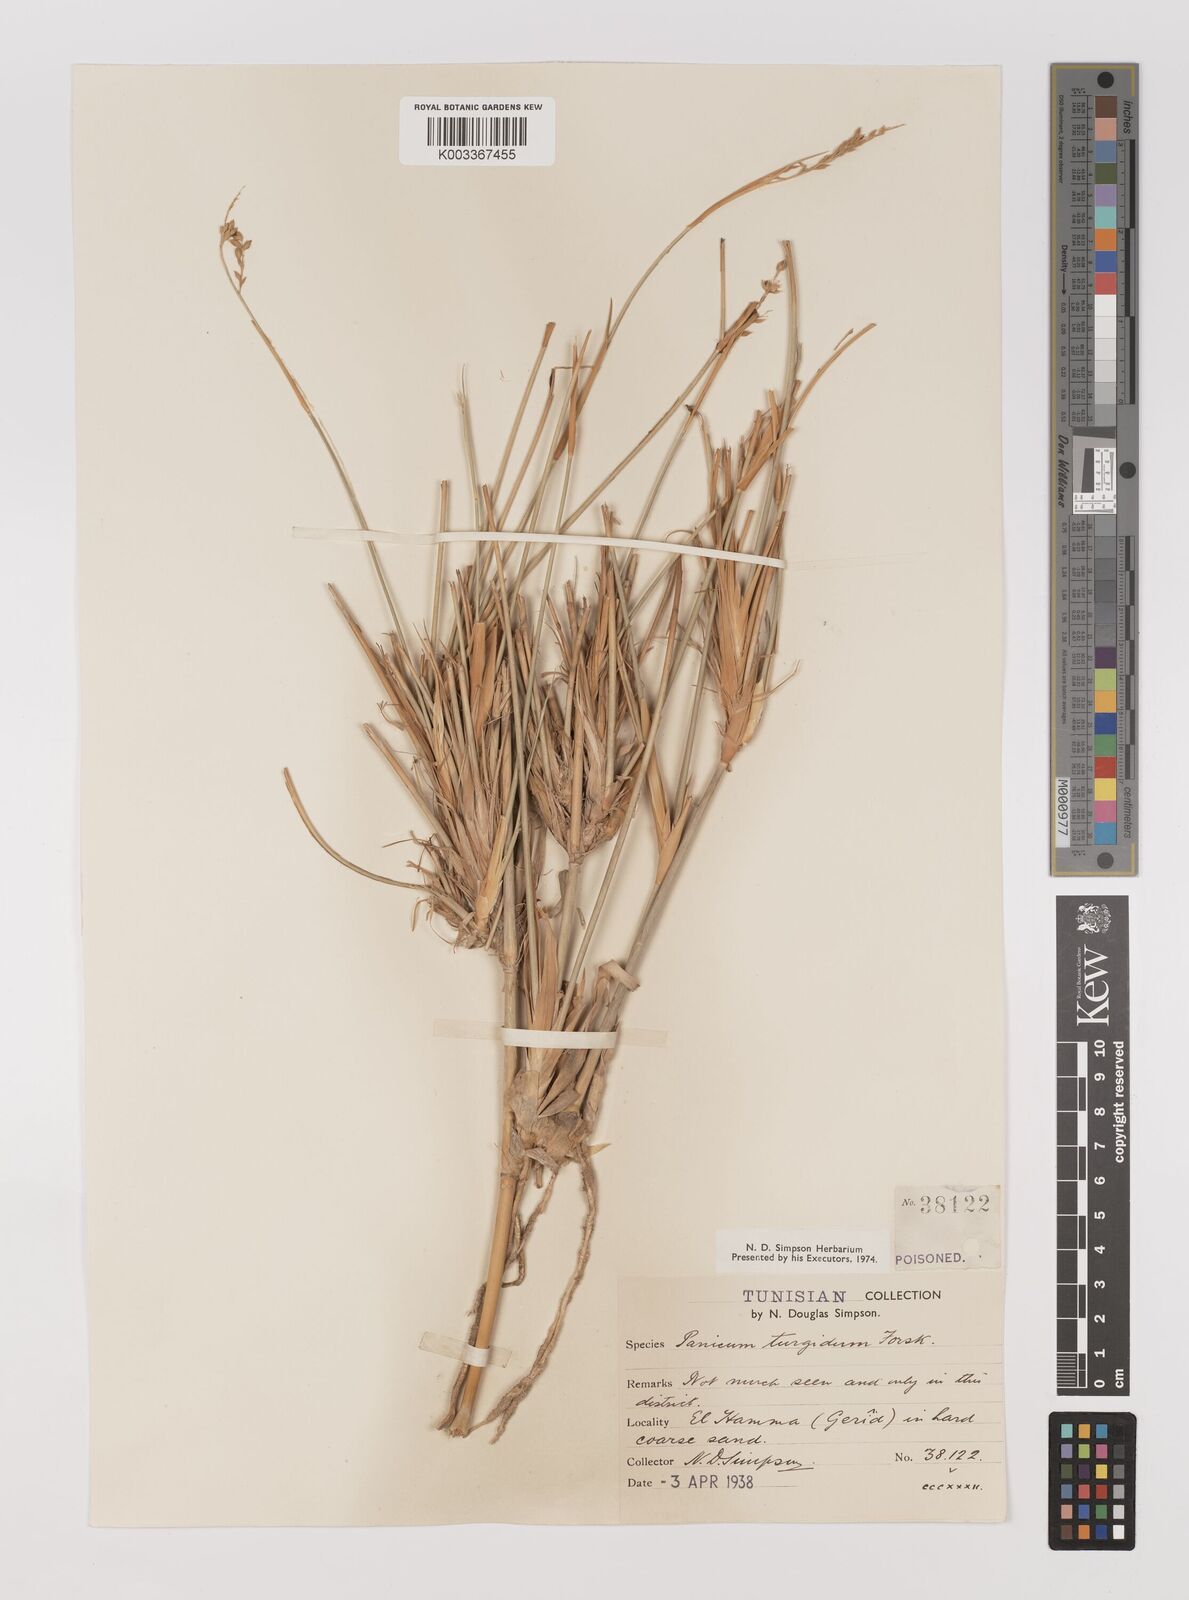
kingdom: Plantae
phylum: Tracheophyta
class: Liliopsida
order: Poales
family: Poaceae
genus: Panicum
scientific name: Panicum turgidum
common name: Desert grass
